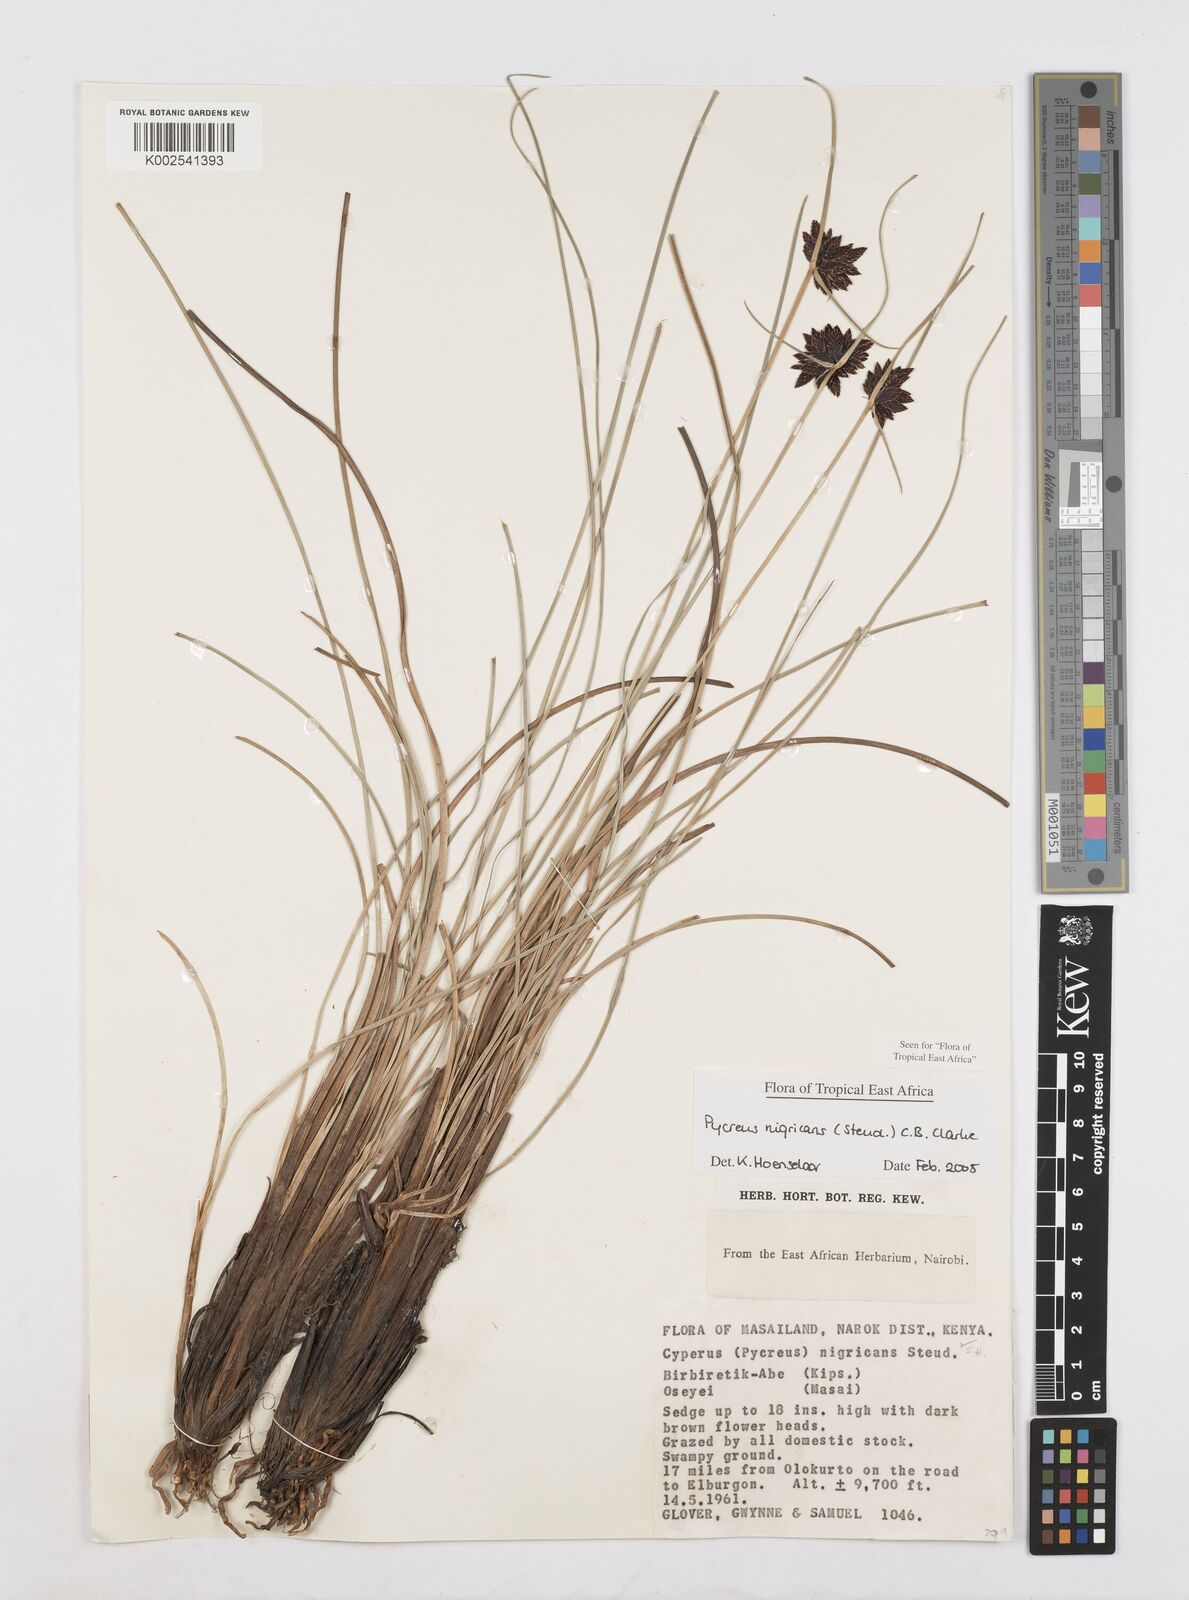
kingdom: Plantae
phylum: Tracheophyta
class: Liliopsida
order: Poales
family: Cyperaceae
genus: Cyperus
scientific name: Cyperus nigricans
